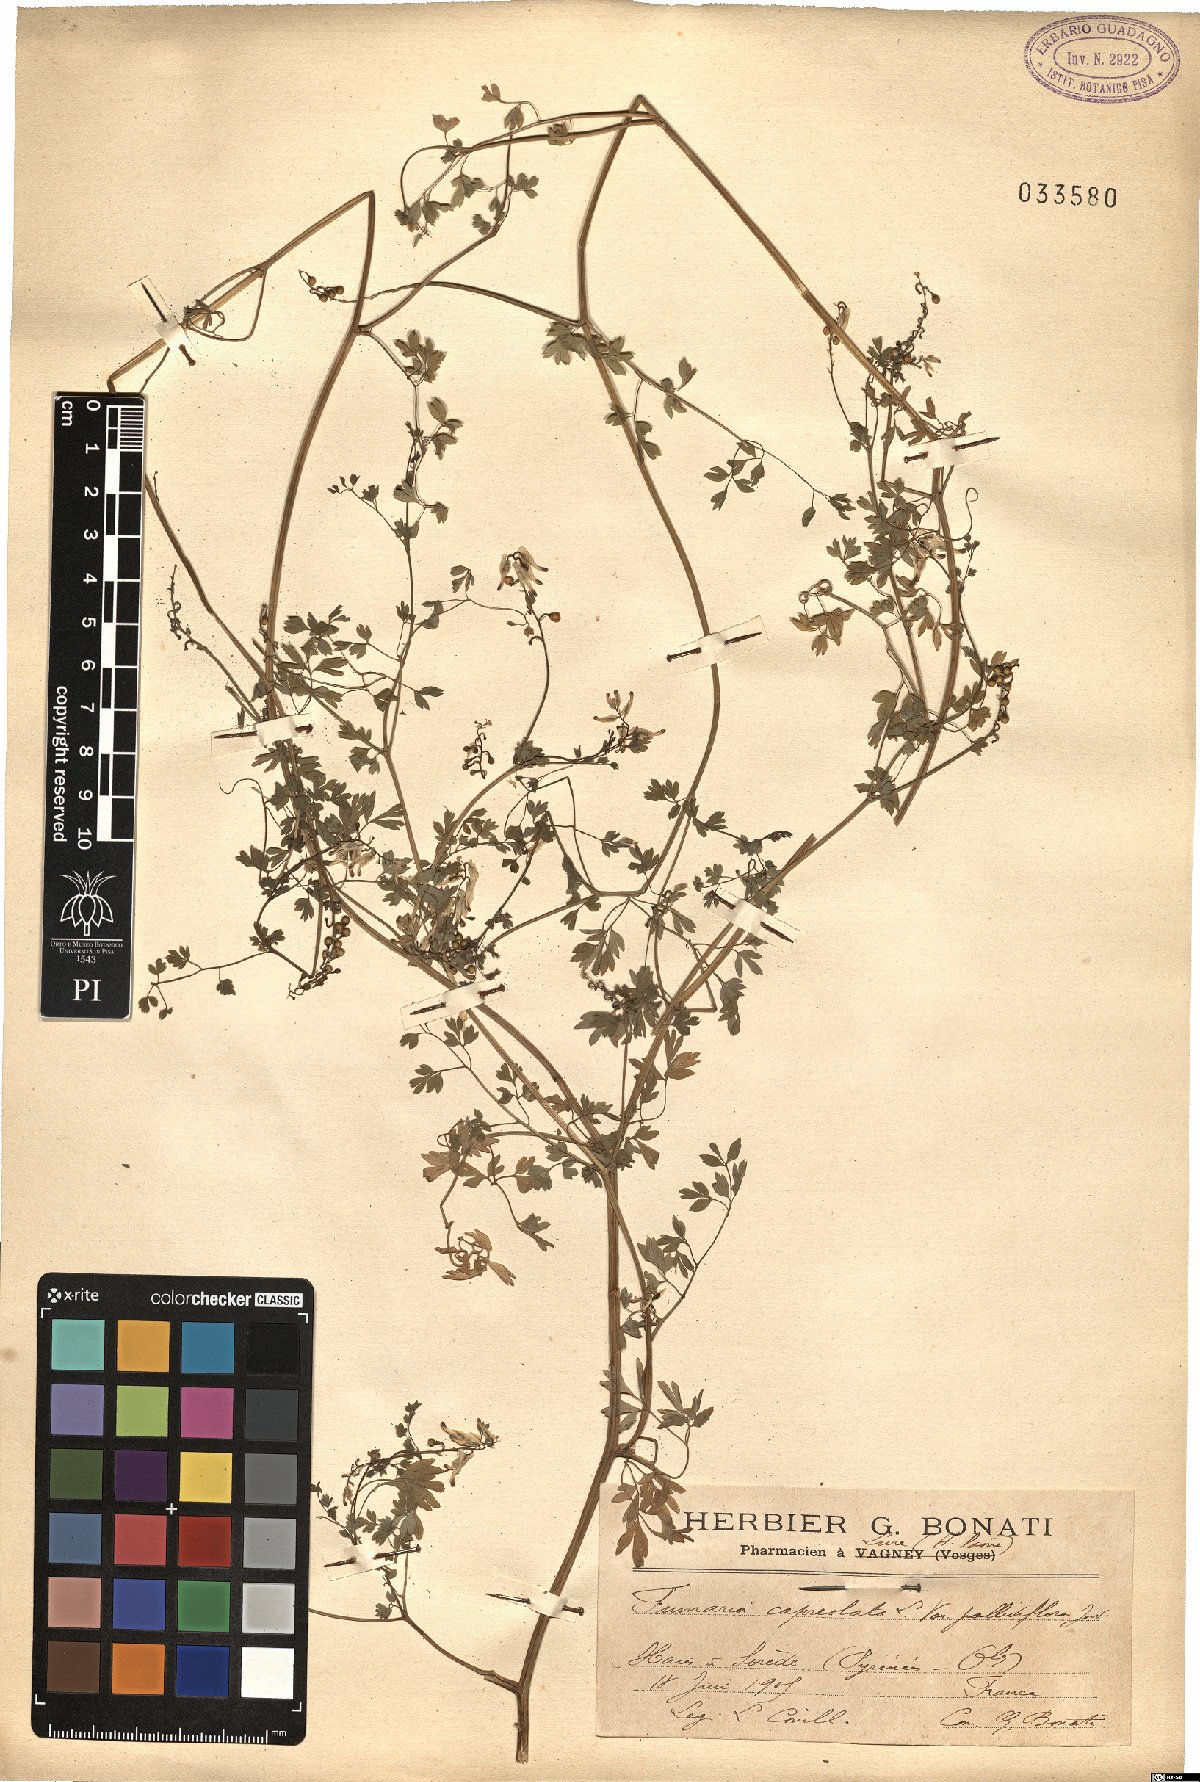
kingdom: Plantae
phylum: Tracheophyta
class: Magnoliopsida
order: Ranunculales
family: Papaveraceae
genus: Fumaria
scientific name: Fumaria capreolata
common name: White ramping-fumitory
